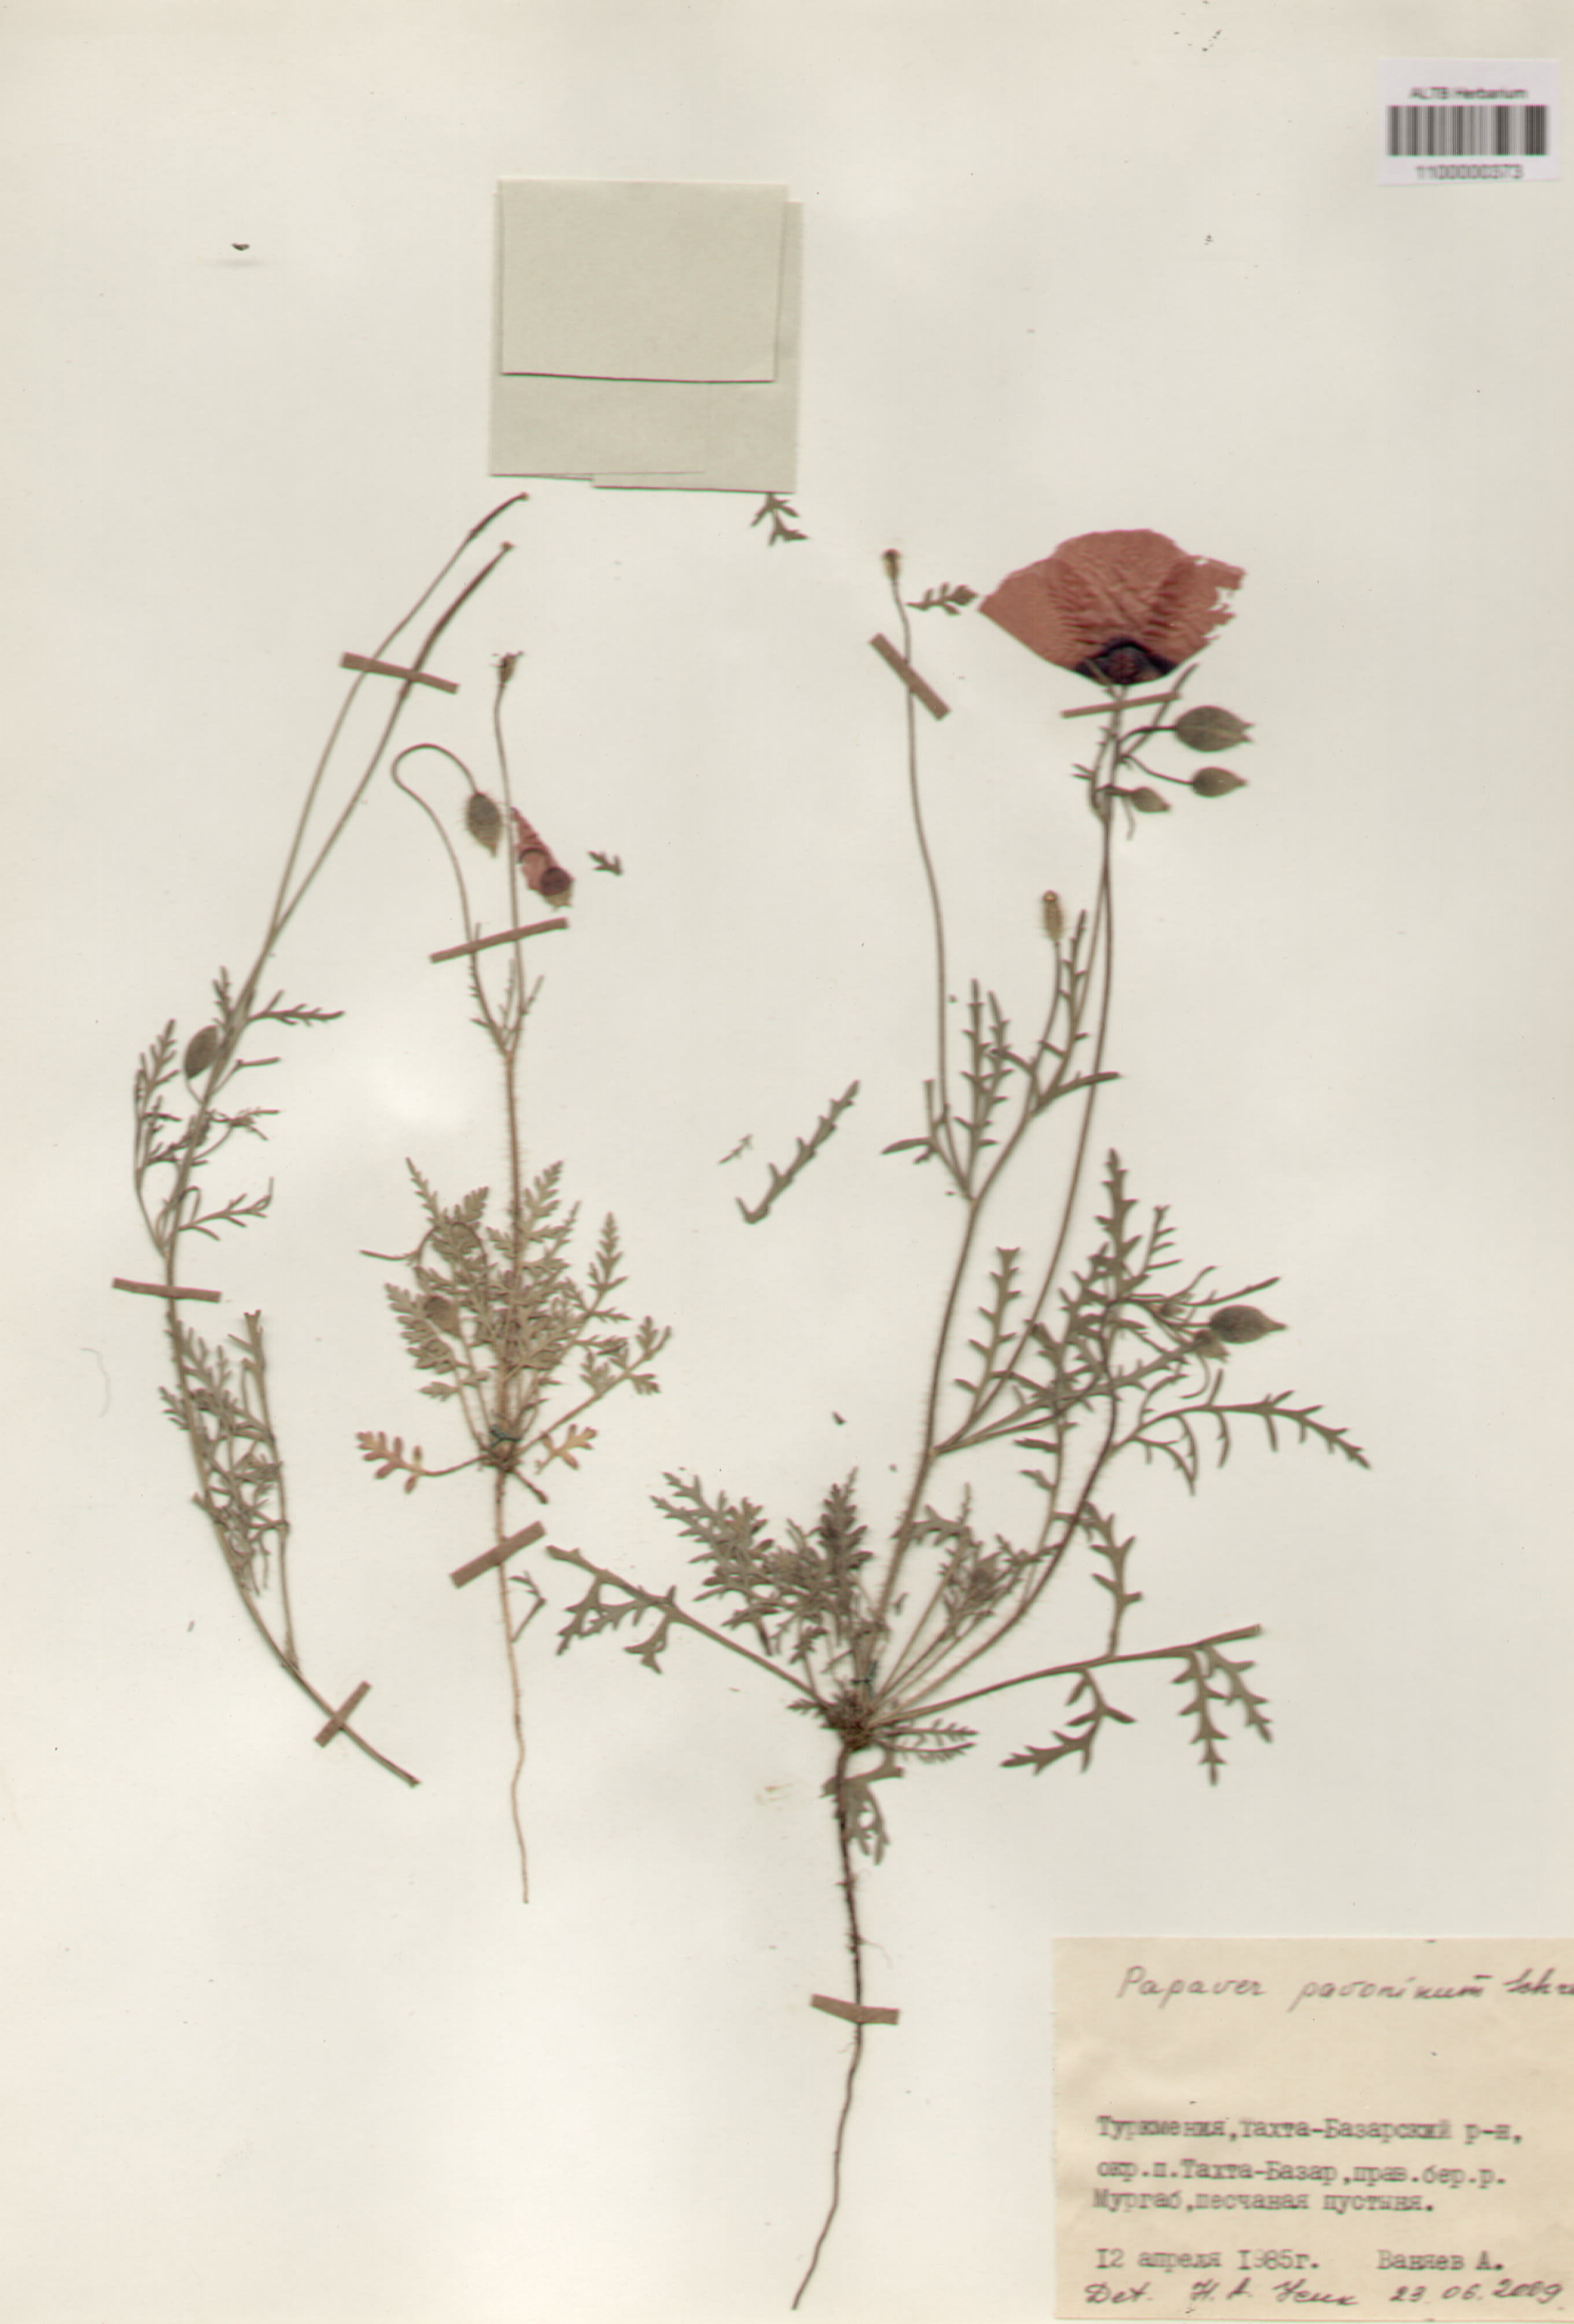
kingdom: Plantae
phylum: Tracheophyta
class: Magnoliopsida
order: Ranunculales
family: Papaveraceae
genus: Papaver
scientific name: Papaver pavoninum
